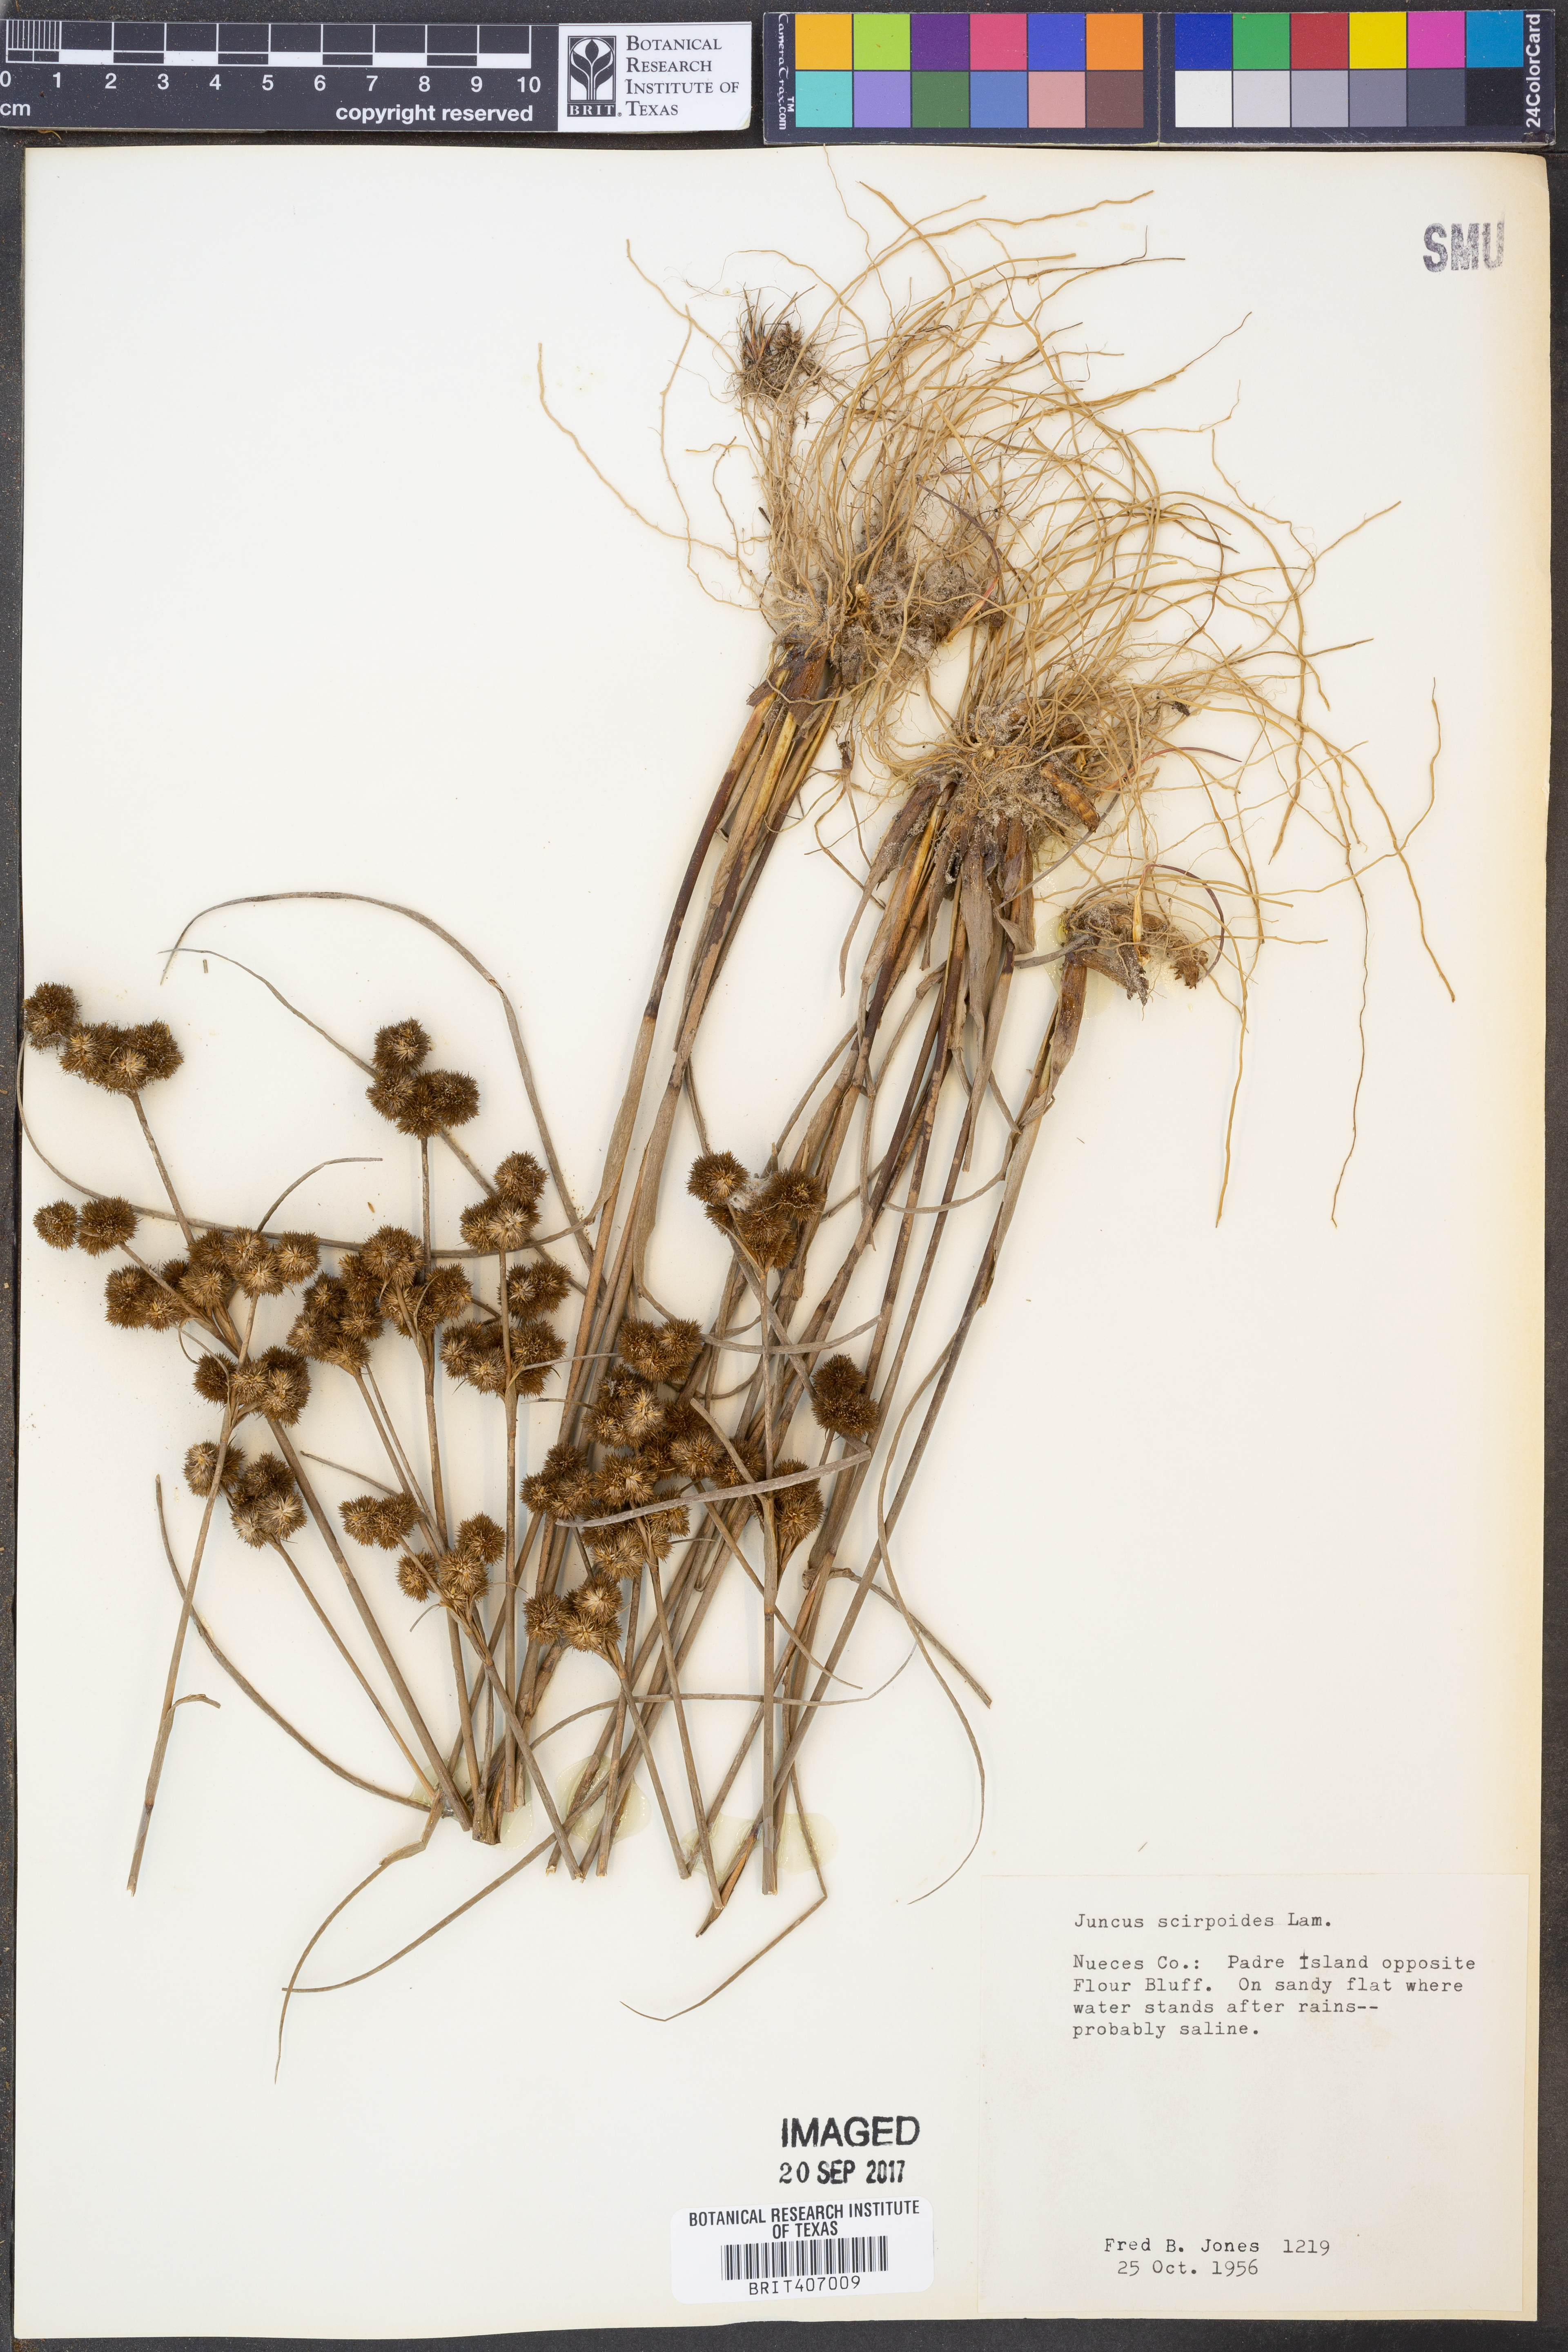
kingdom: Plantae
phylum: Tracheophyta
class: Liliopsida
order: Poales
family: Juncaceae
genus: Juncus
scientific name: Juncus scirpoides
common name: Needlepod rush
